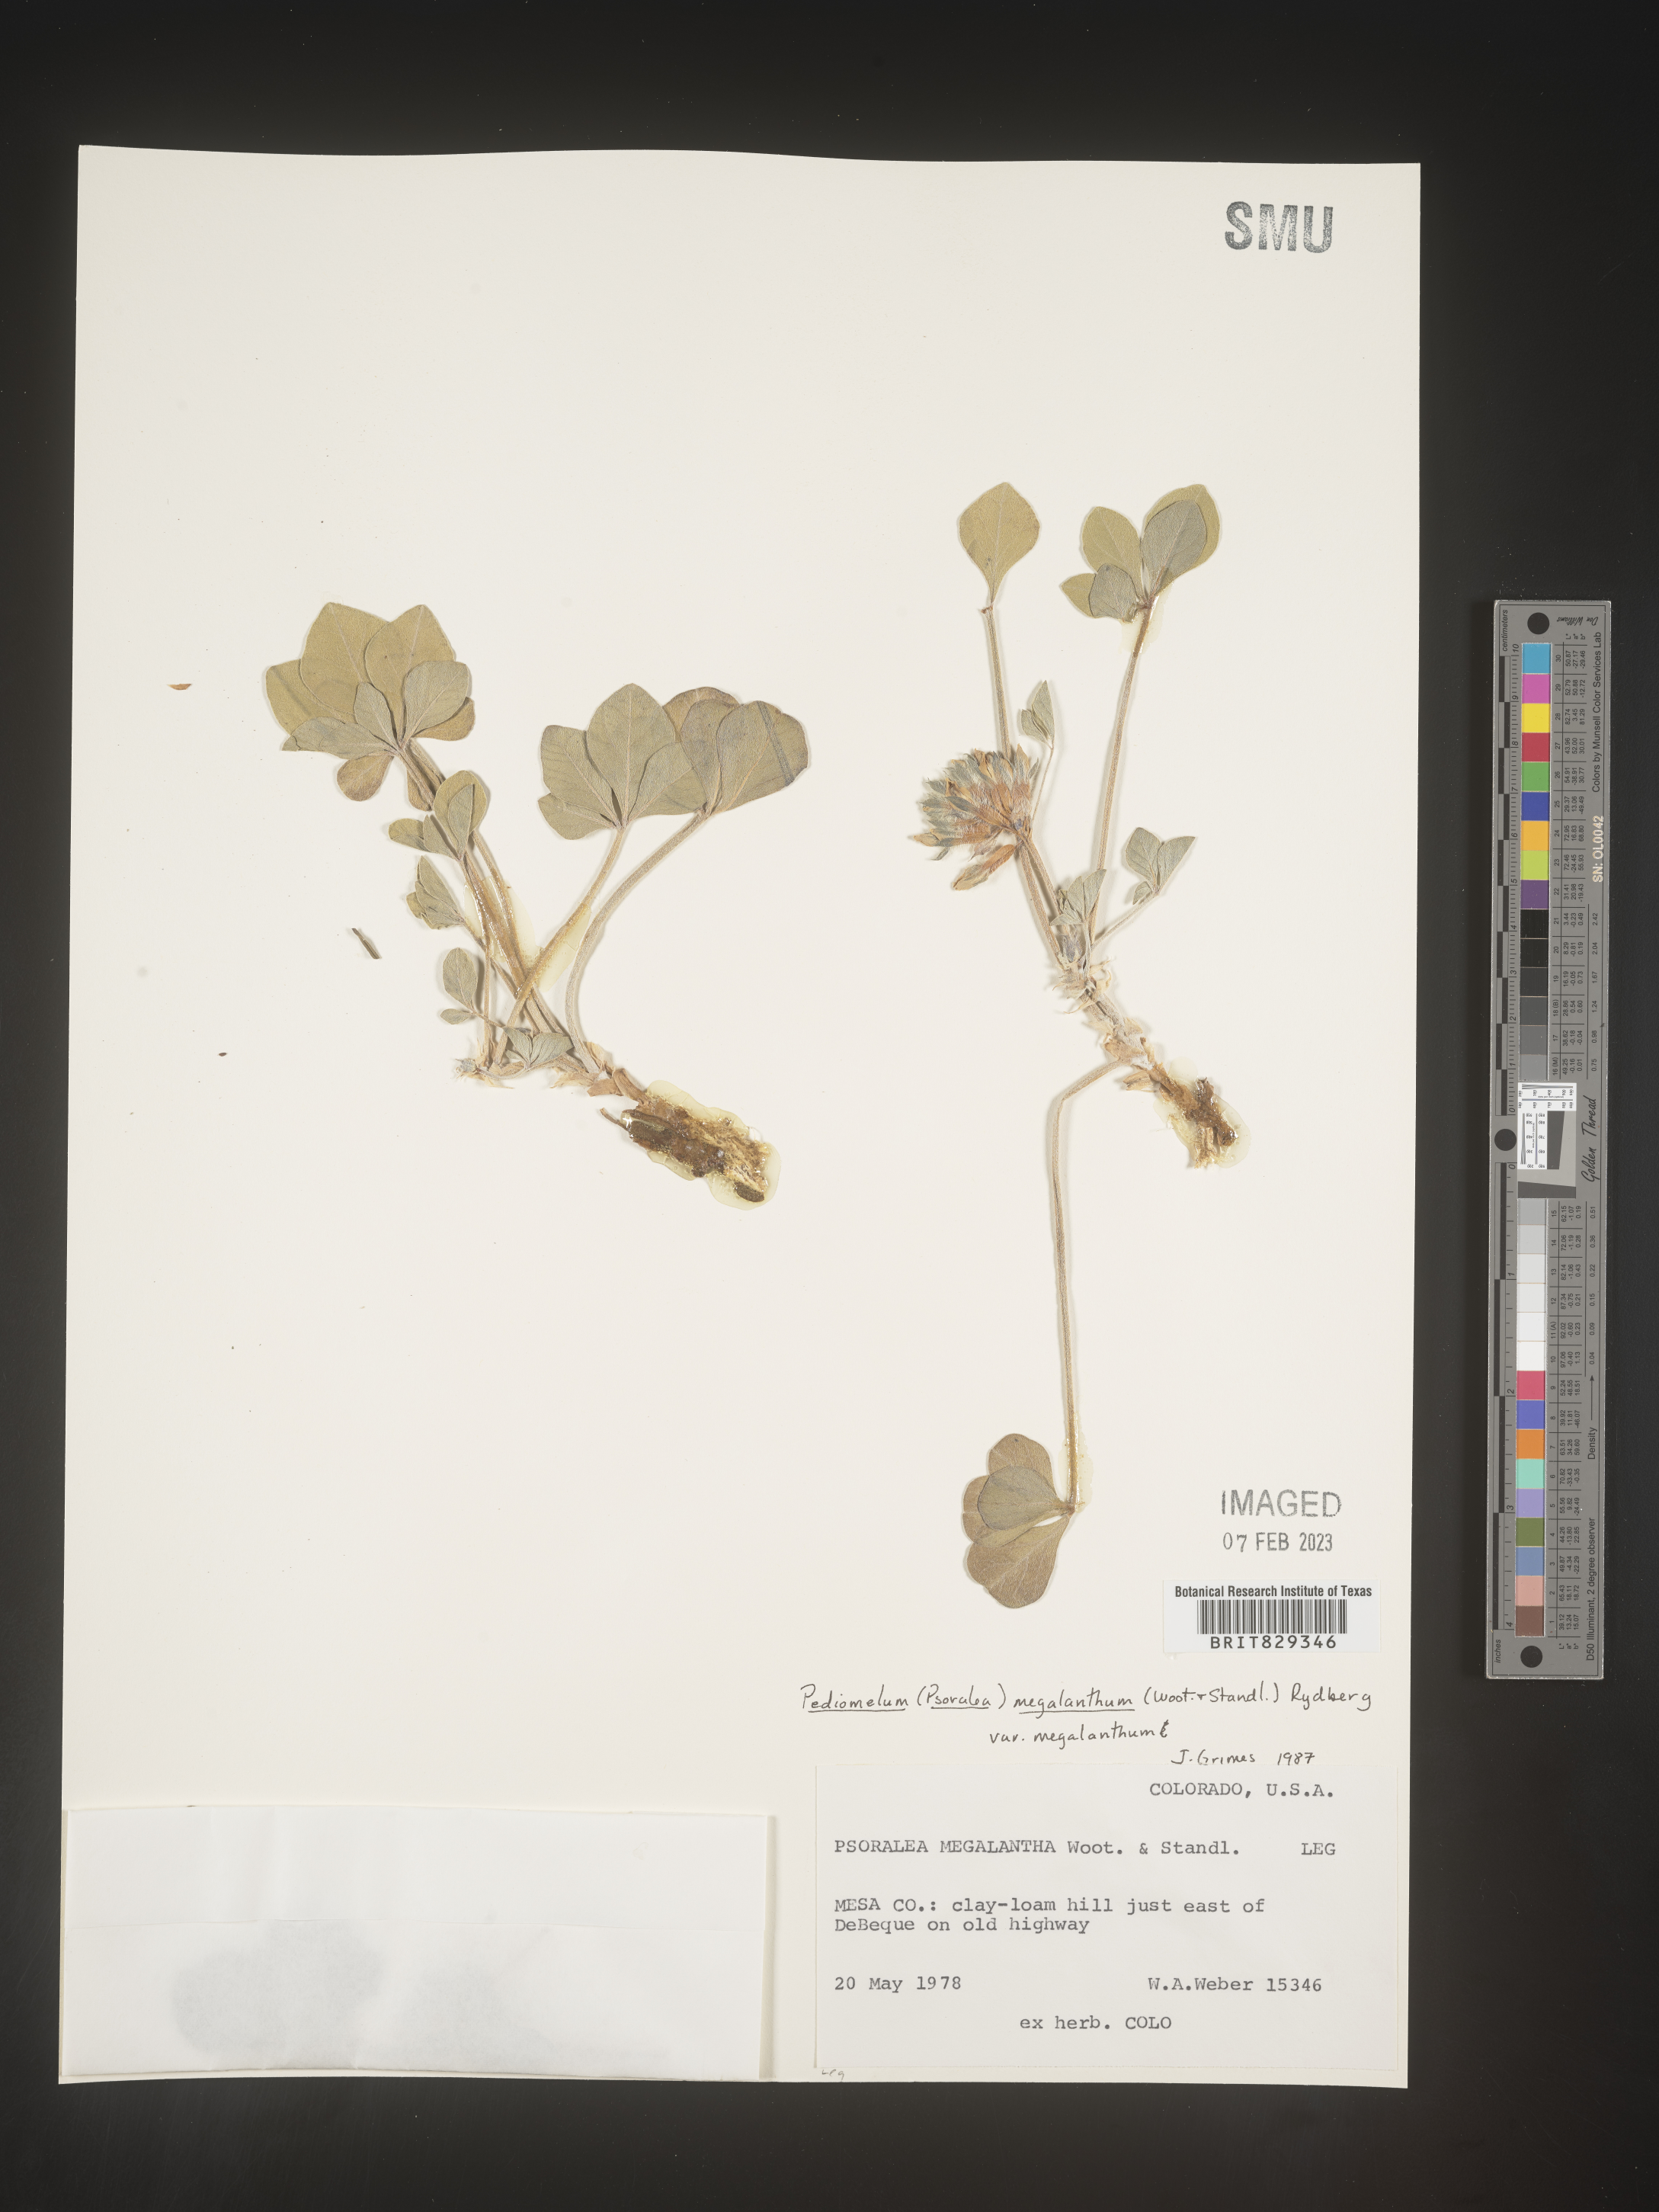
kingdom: Plantae
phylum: Tracheophyta
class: Magnoliopsida
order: Fabales
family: Fabaceae
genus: Psoralea
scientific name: Psoralea
